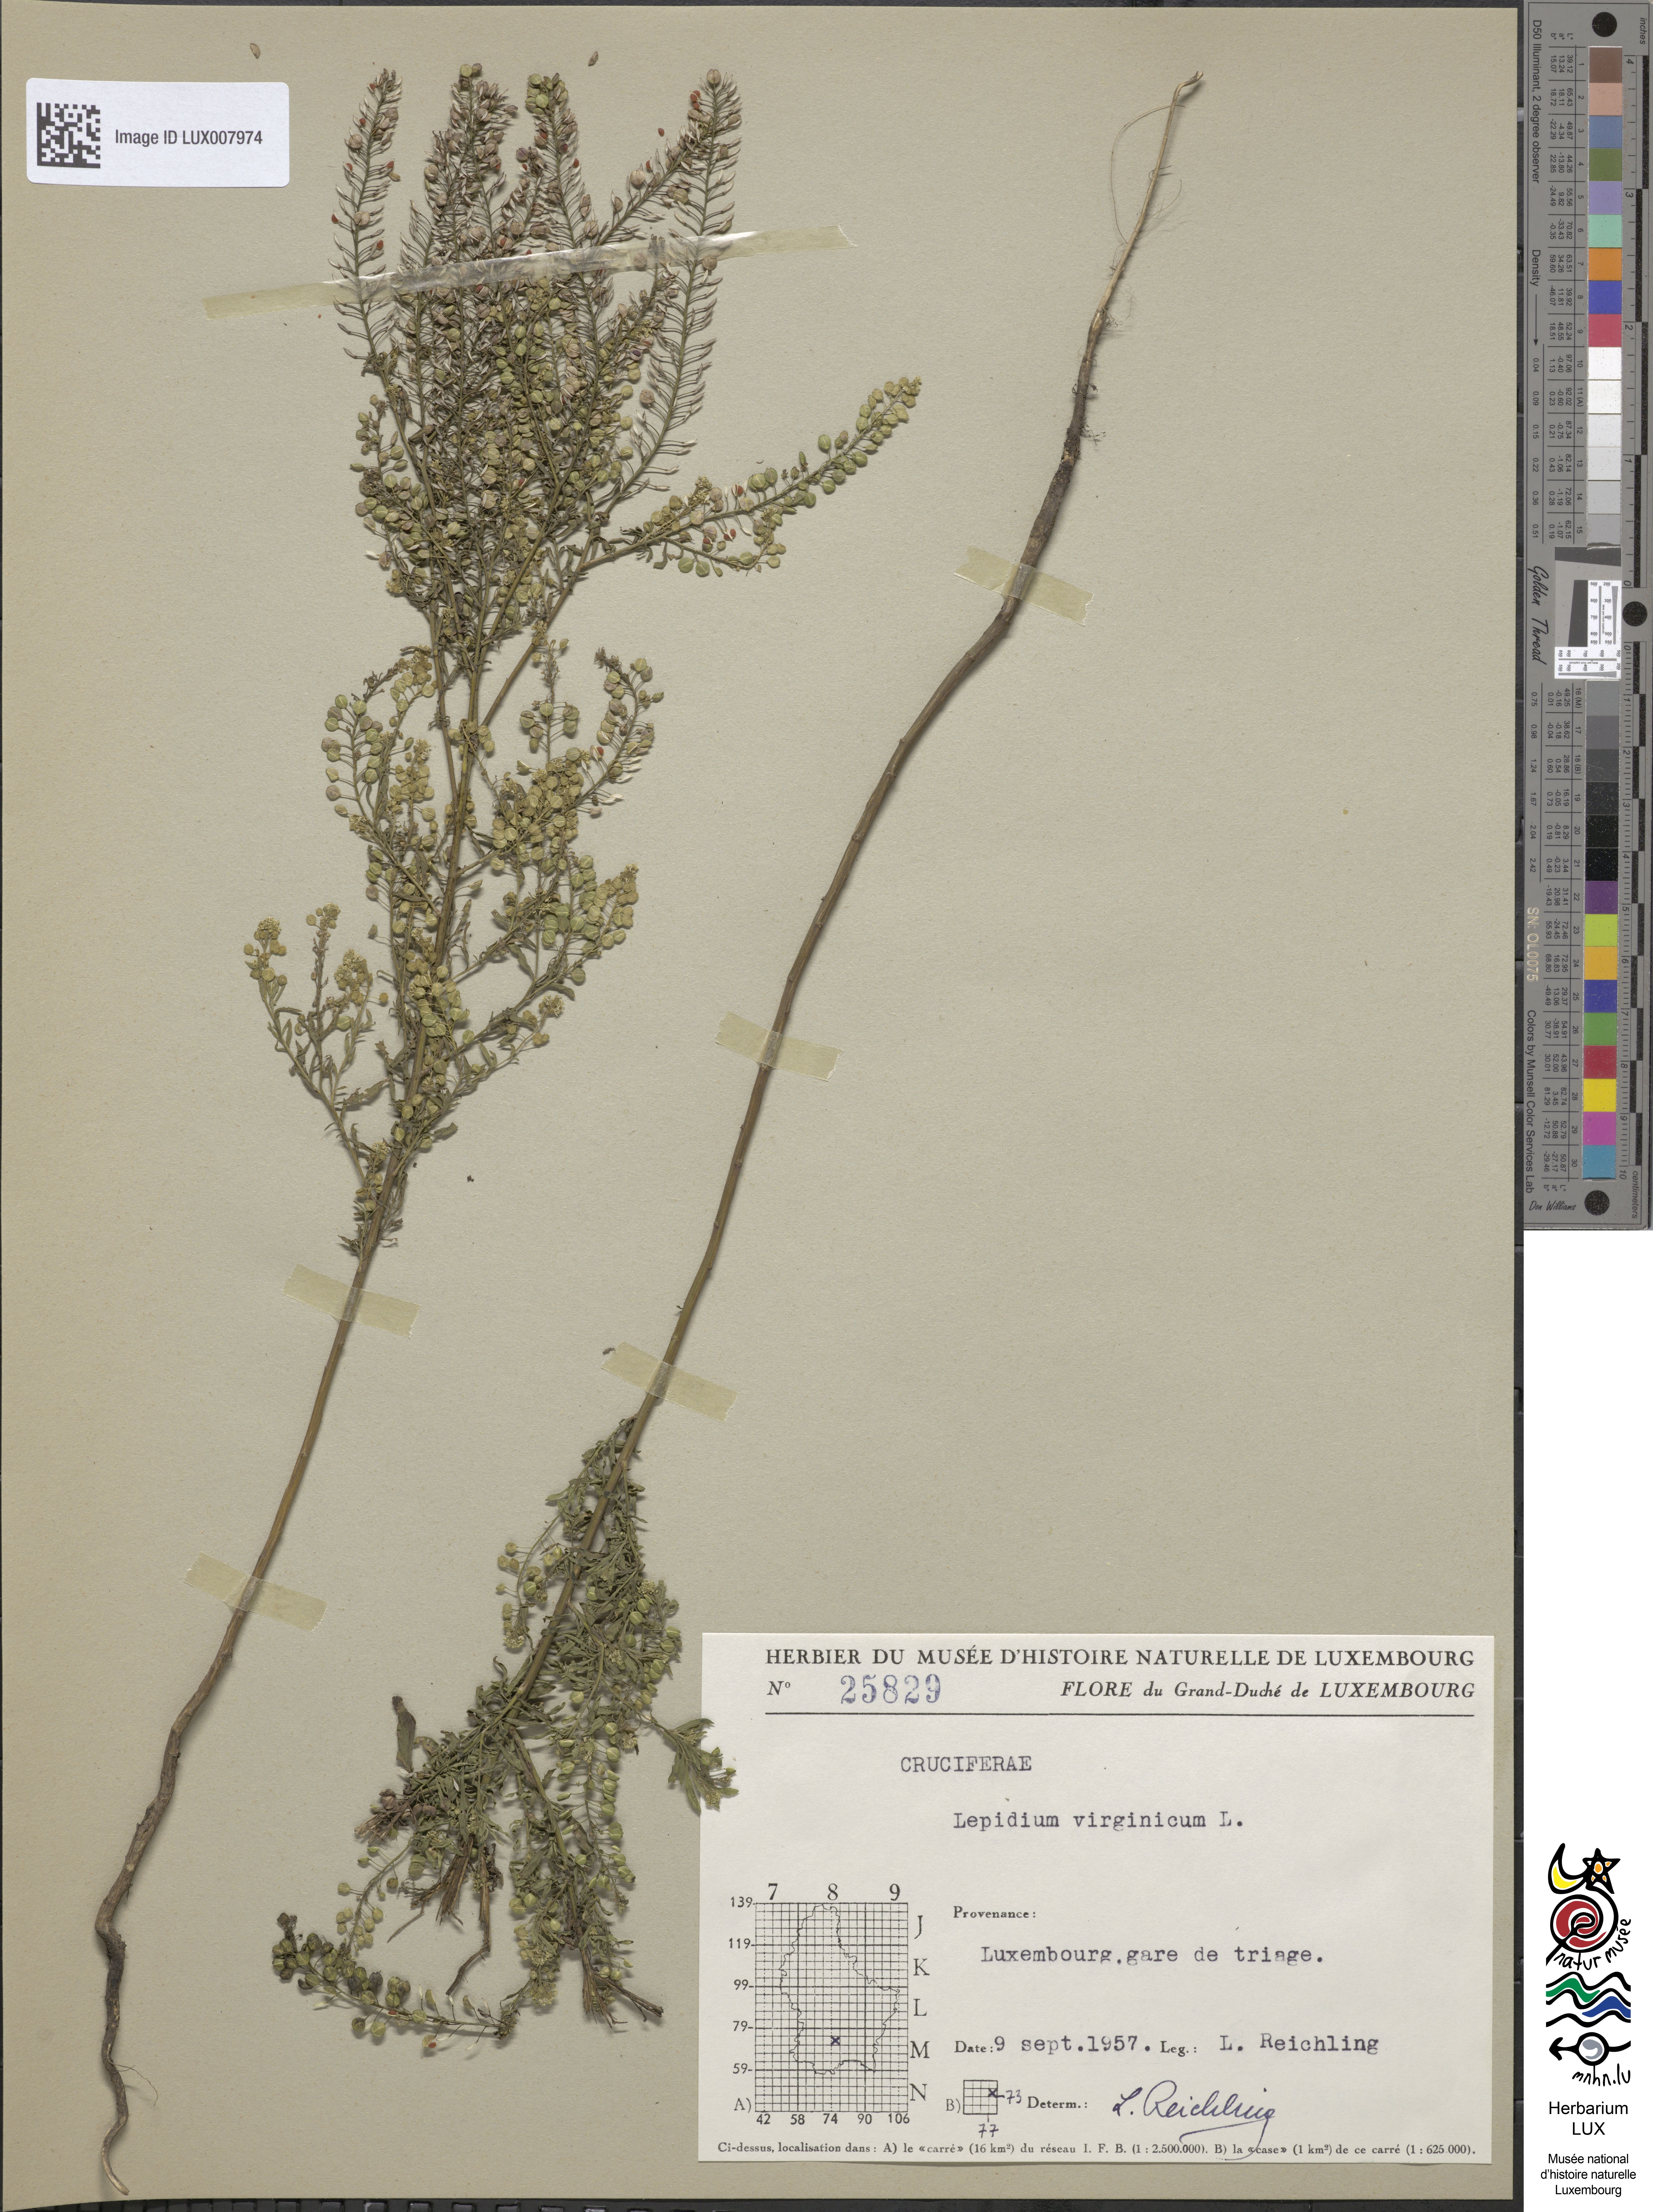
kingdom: Plantae
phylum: Tracheophyta
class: Magnoliopsida
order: Brassicales
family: Brassicaceae
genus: Lepidium
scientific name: Lepidium virginicum
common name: Least pepperwort
